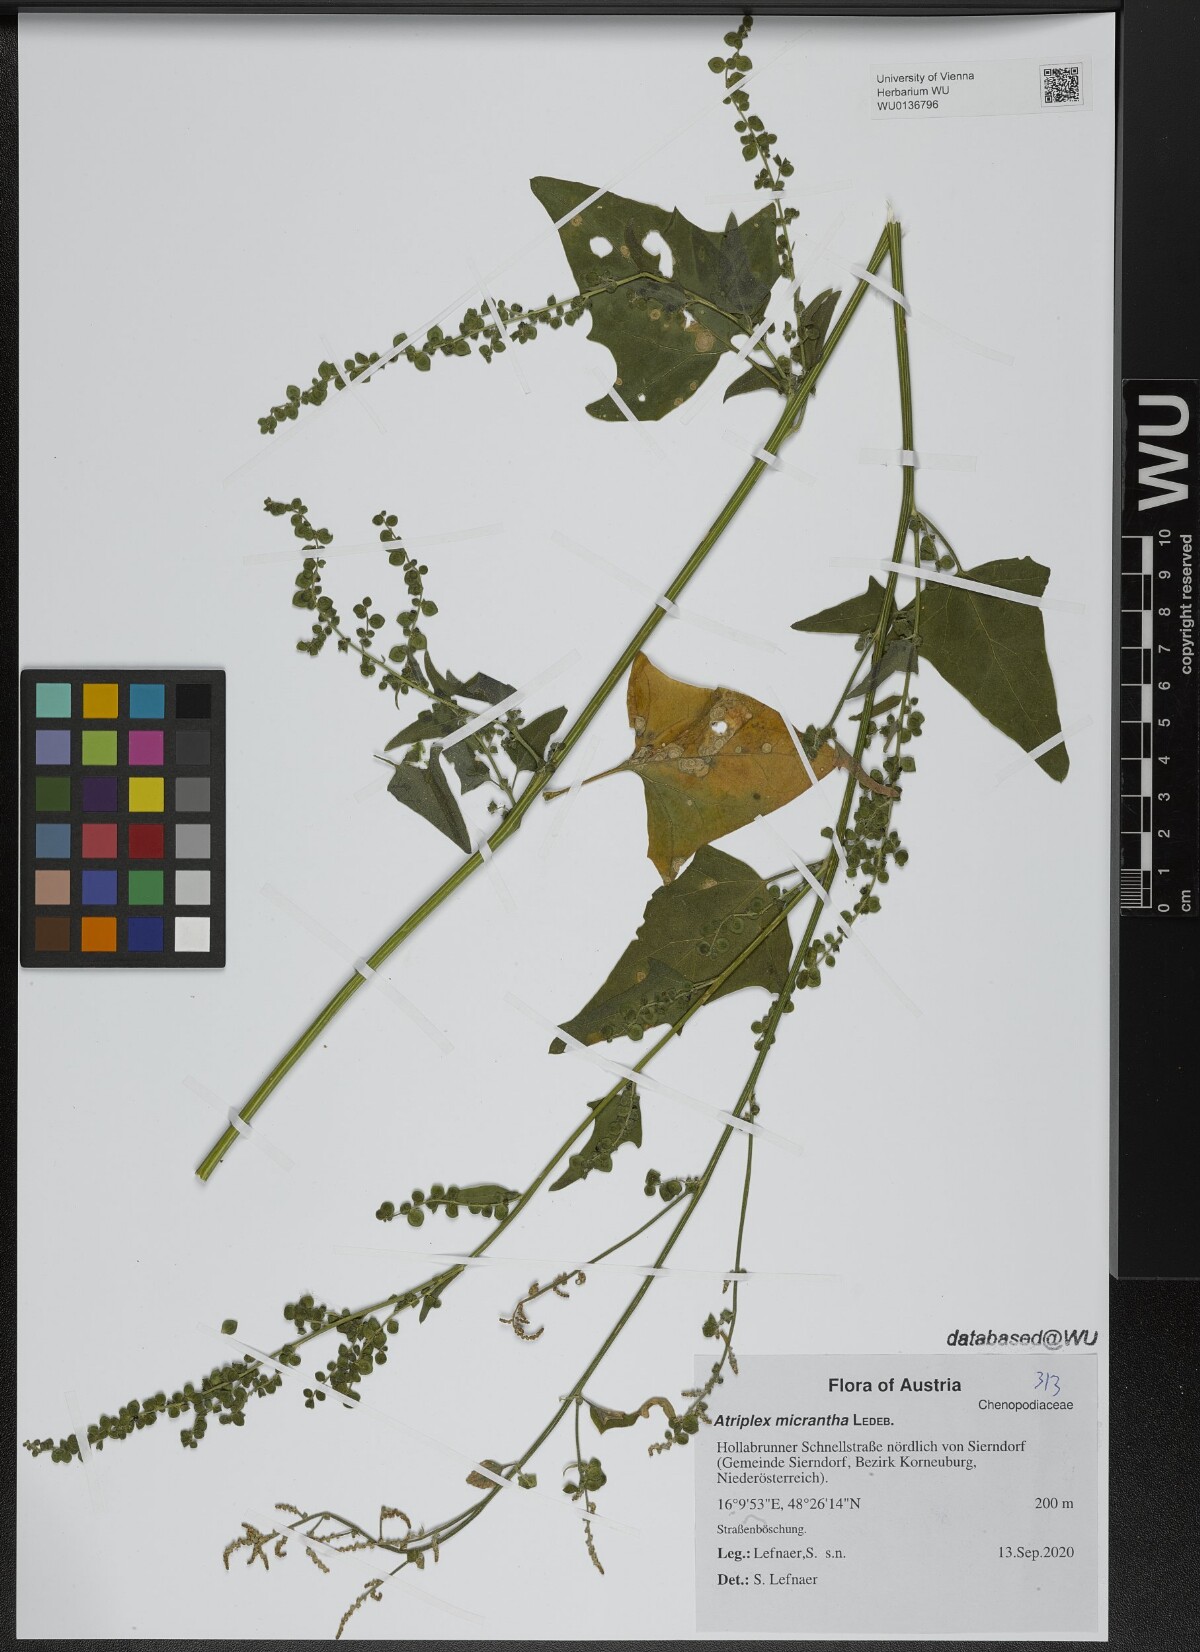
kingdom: Plantae
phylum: Tracheophyta
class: Magnoliopsida
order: Caryophyllales
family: Amaranthaceae
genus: Atriplex
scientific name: Atriplex micrantha
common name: Twoscale saltbush
